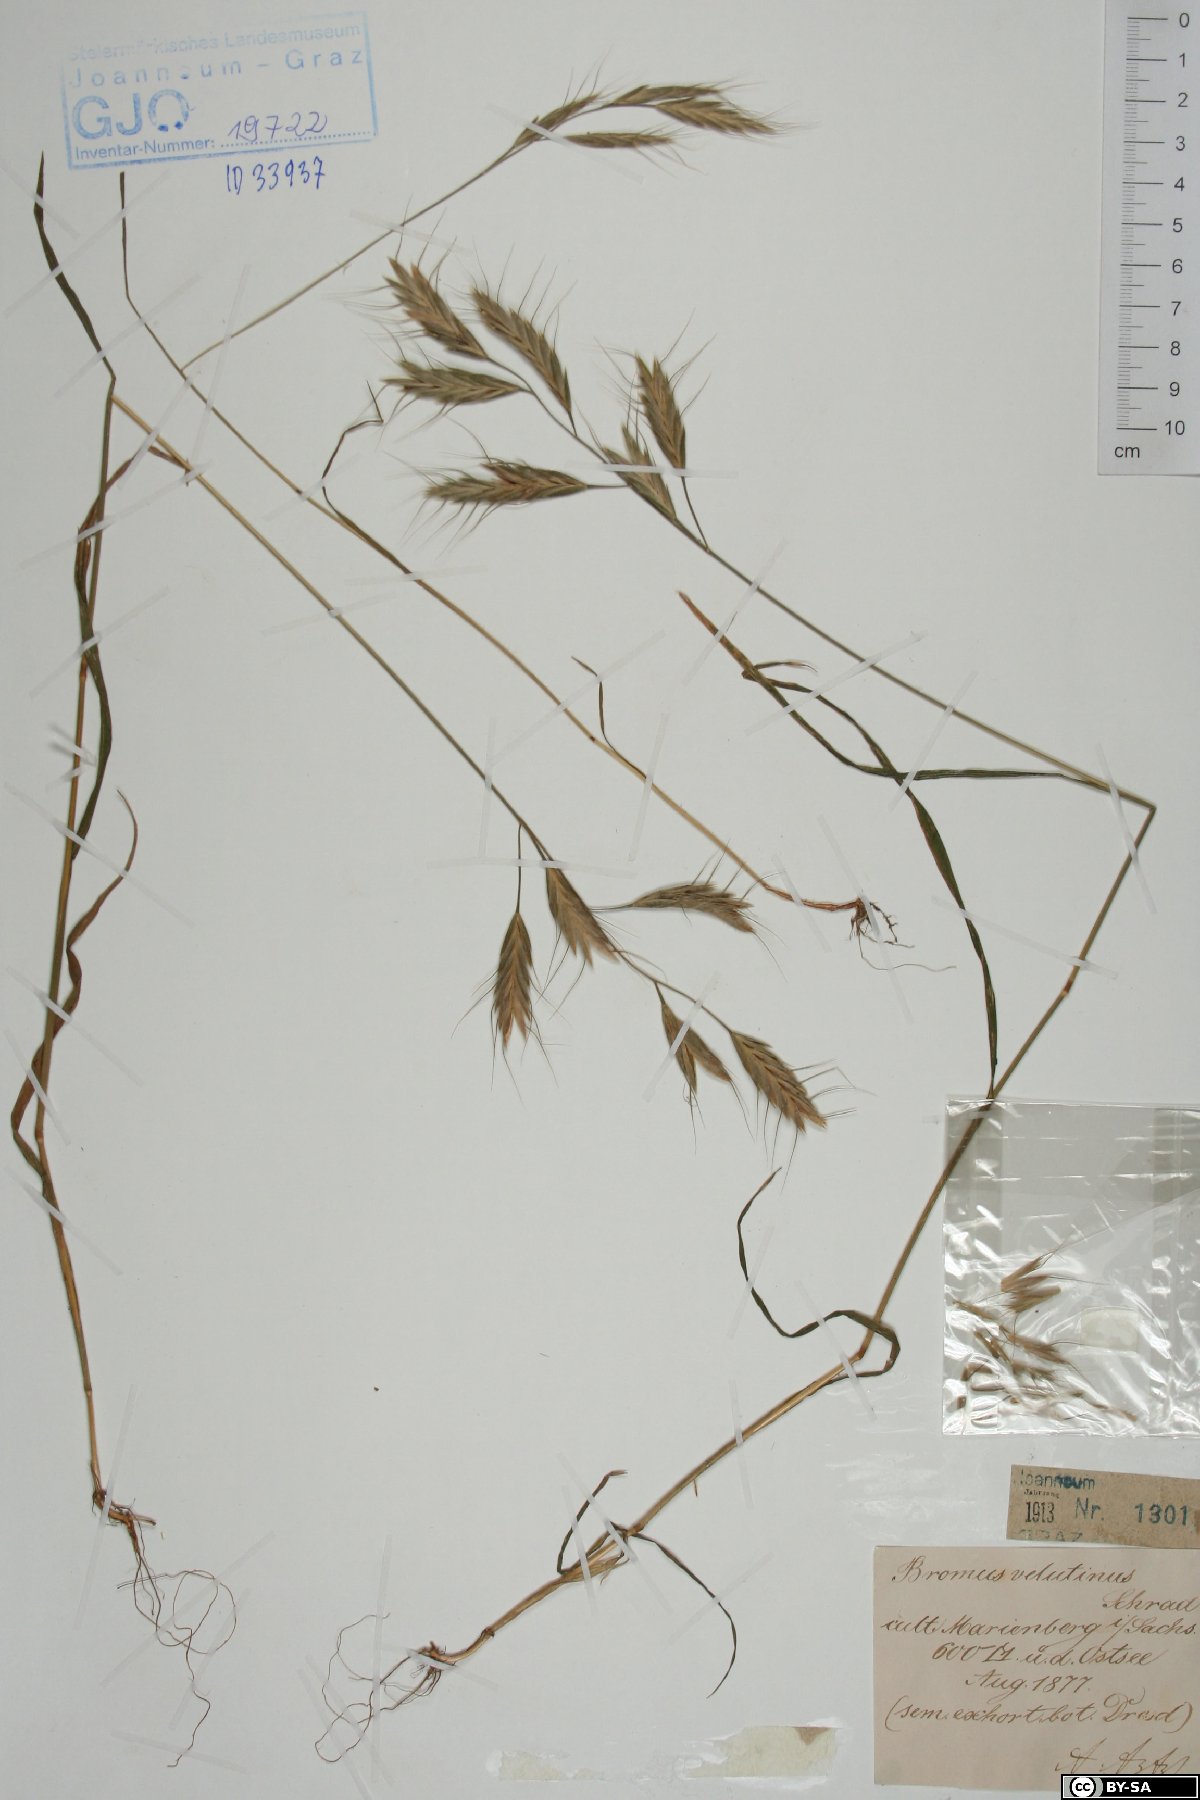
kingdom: Plantae
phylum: Tracheophyta
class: Liliopsida
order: Poales
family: Poaceae
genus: Bromus
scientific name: Bromus grossus
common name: Whiskered brome
